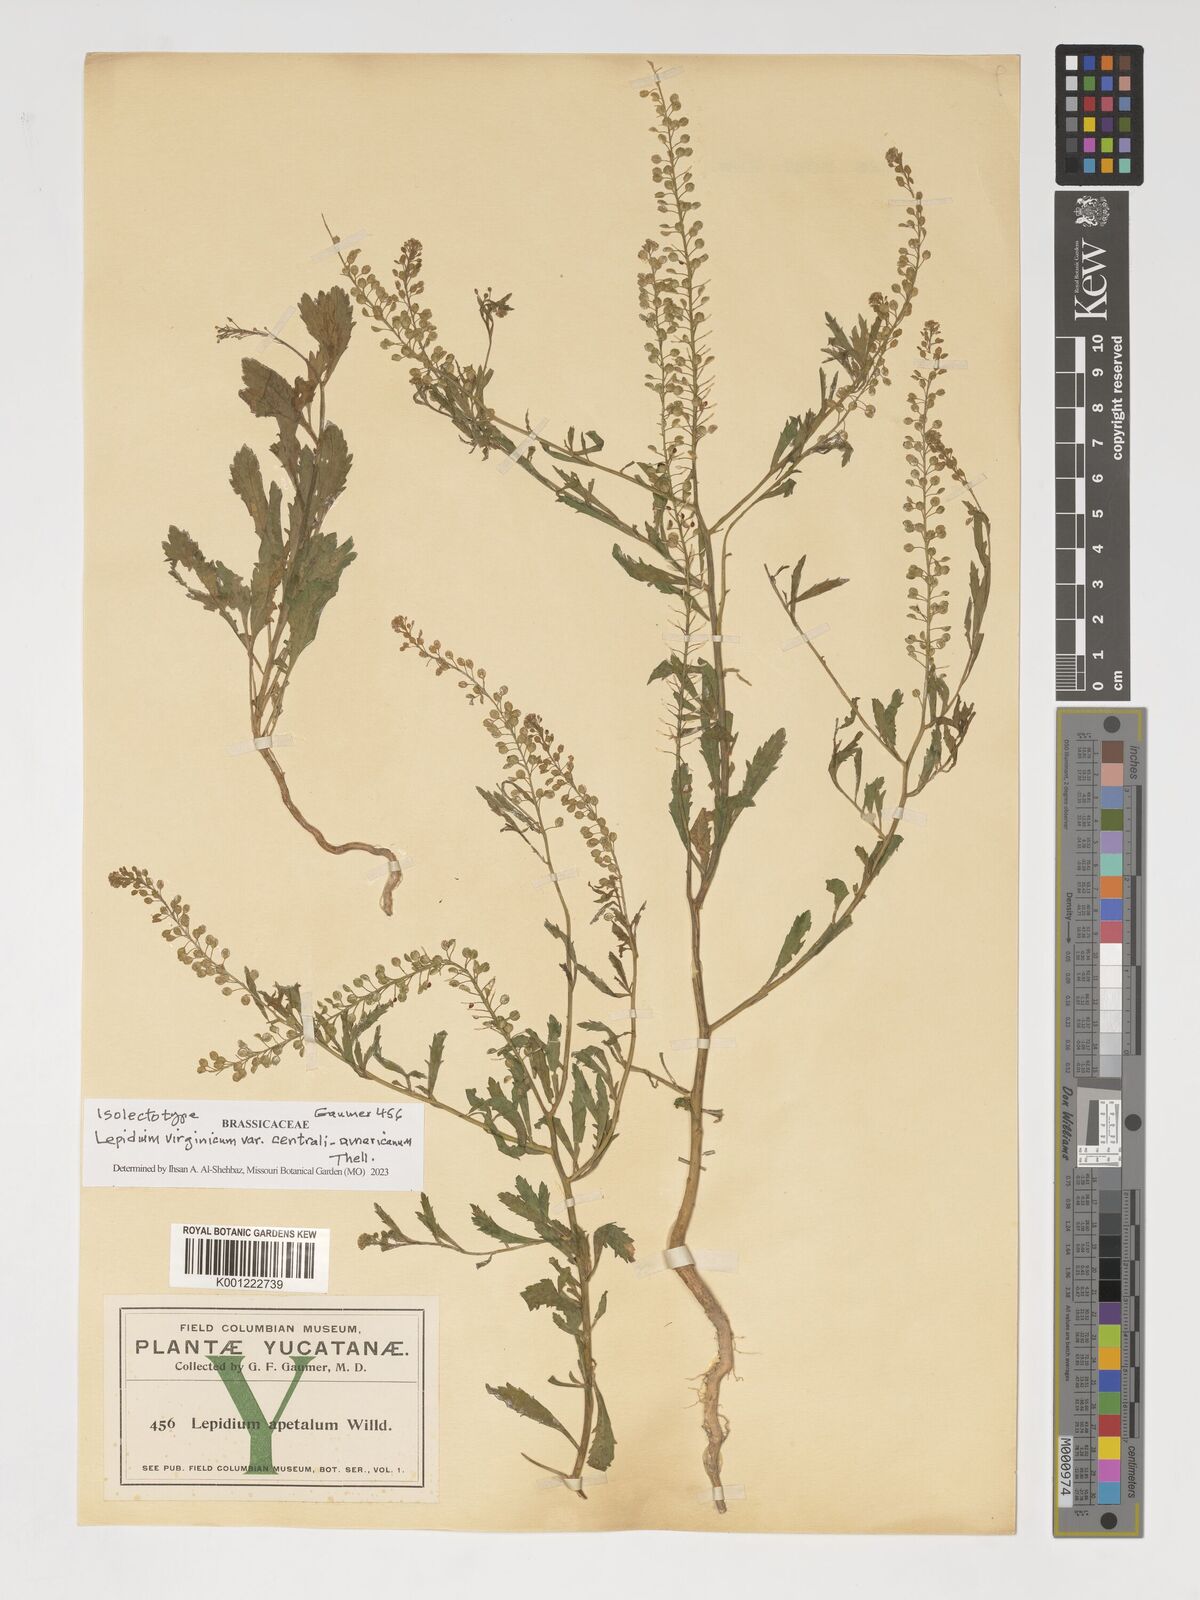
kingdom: Plantae
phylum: Tracheophyta
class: Magnoliopsida
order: Brassicales
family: Brassicaceae
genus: Lepidium
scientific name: Lepidium costaricense
